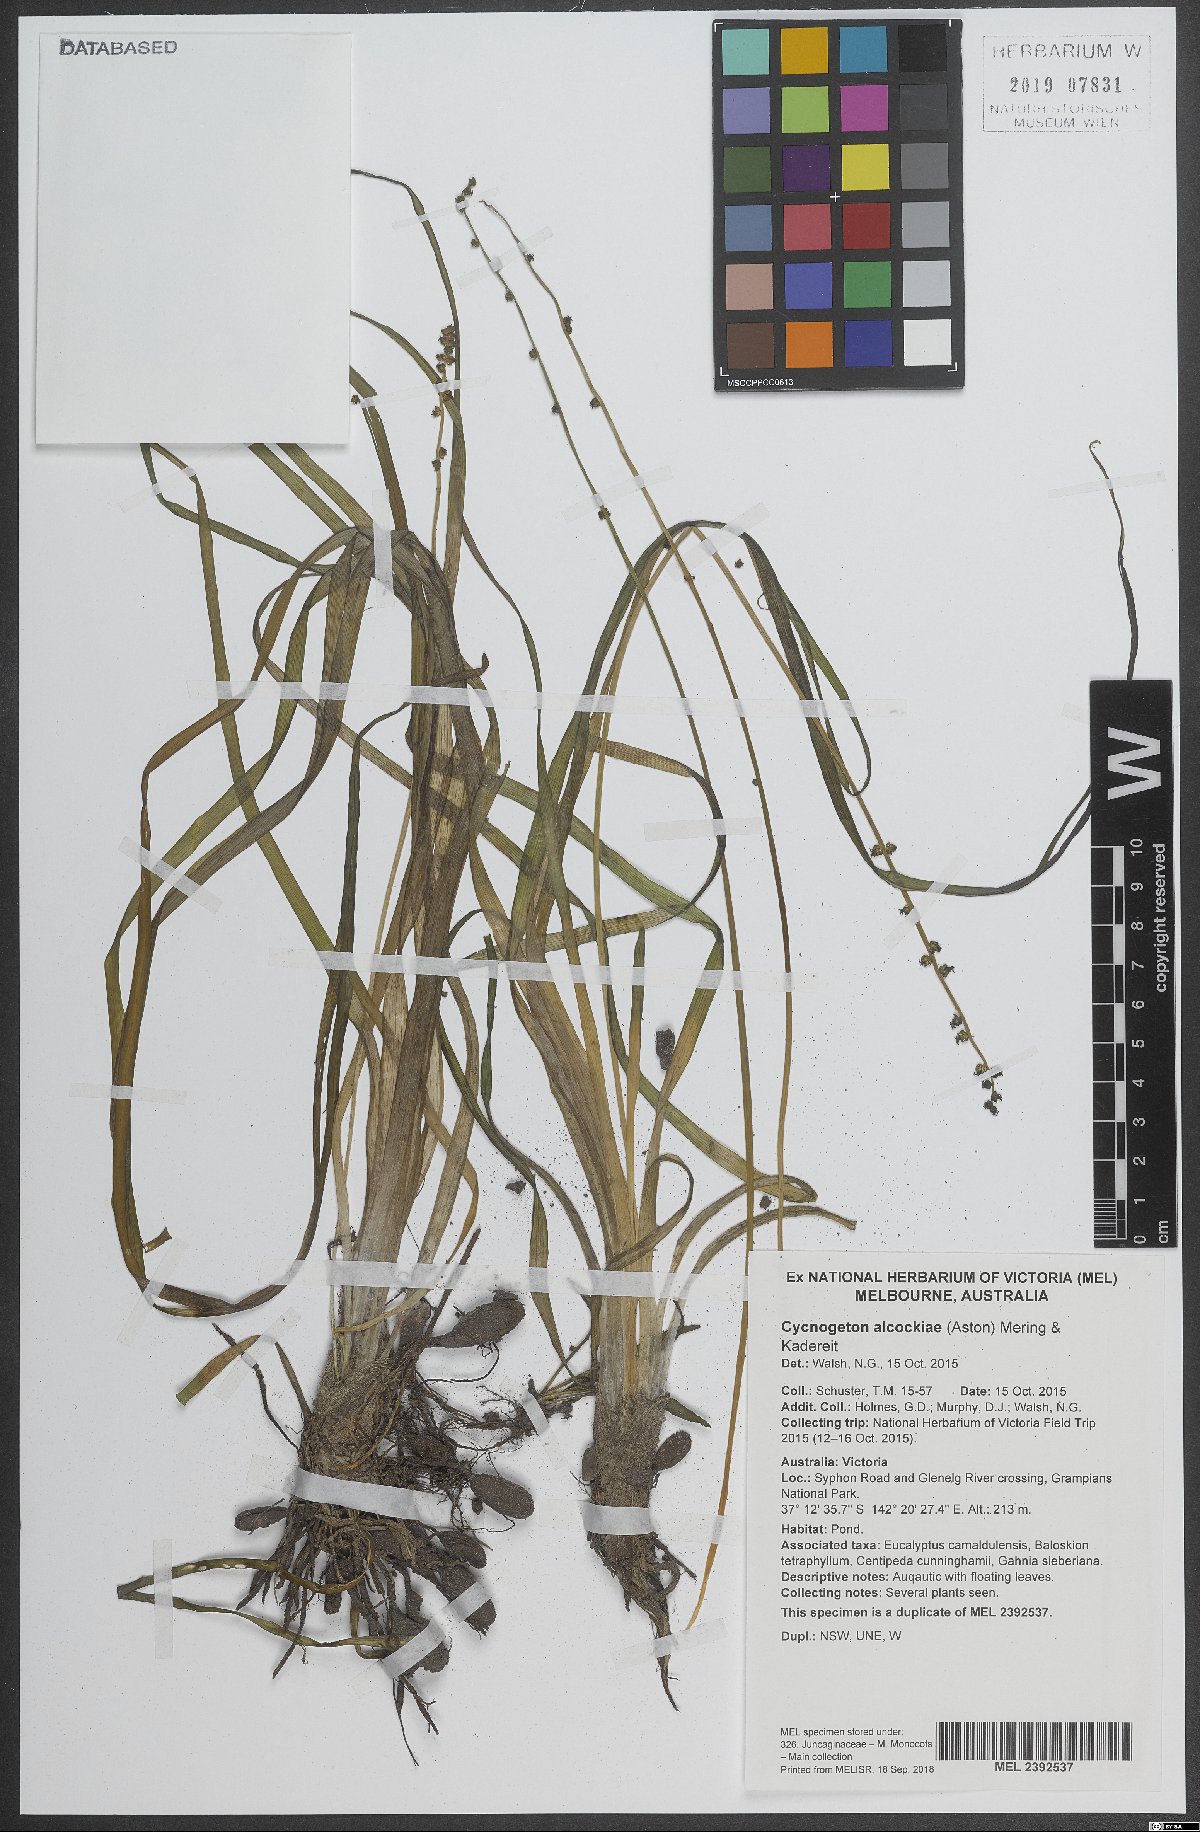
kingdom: Plantae
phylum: Tracheophyta
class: Liliopsida
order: Alismatales
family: Juncaginaceae
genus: Cycnogeton
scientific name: Cycnogeton alcockiae
